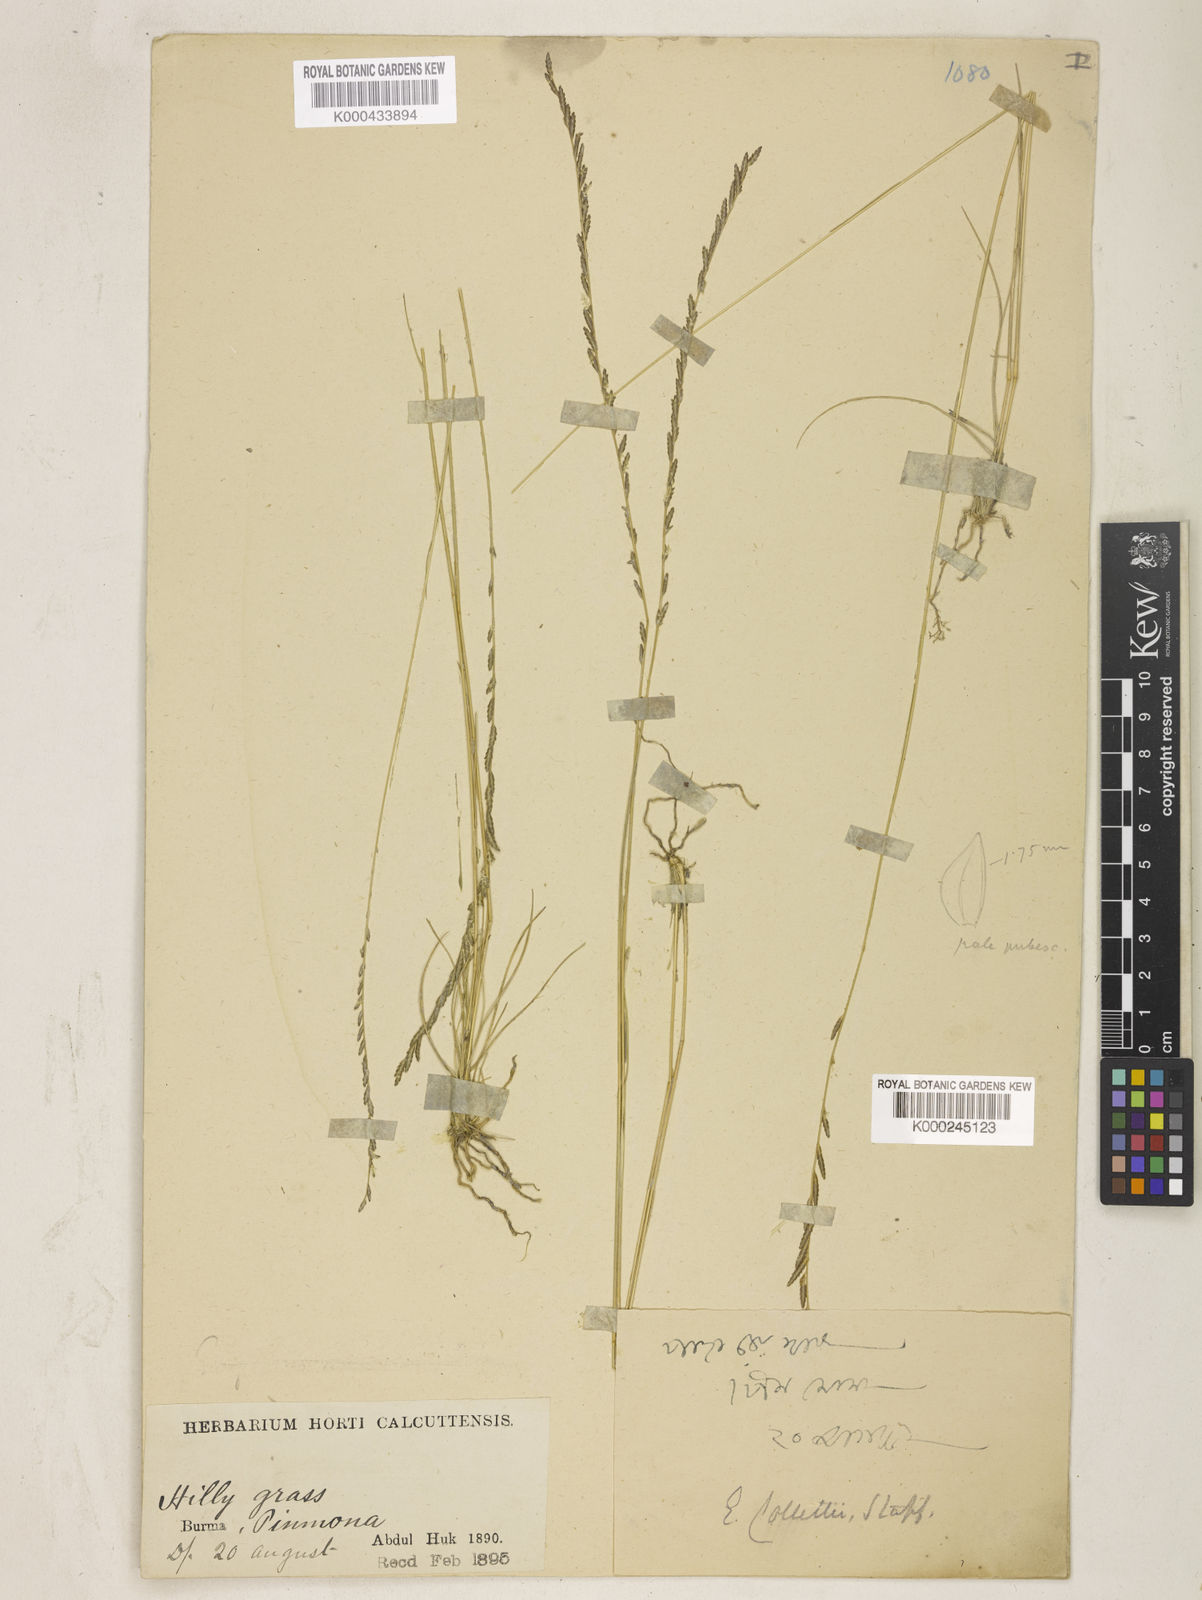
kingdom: Plantae
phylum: Tracheophyta
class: Liliopsida
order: Poales
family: Poaceae
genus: Eragrostiella
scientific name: Eragrostiella collettii
